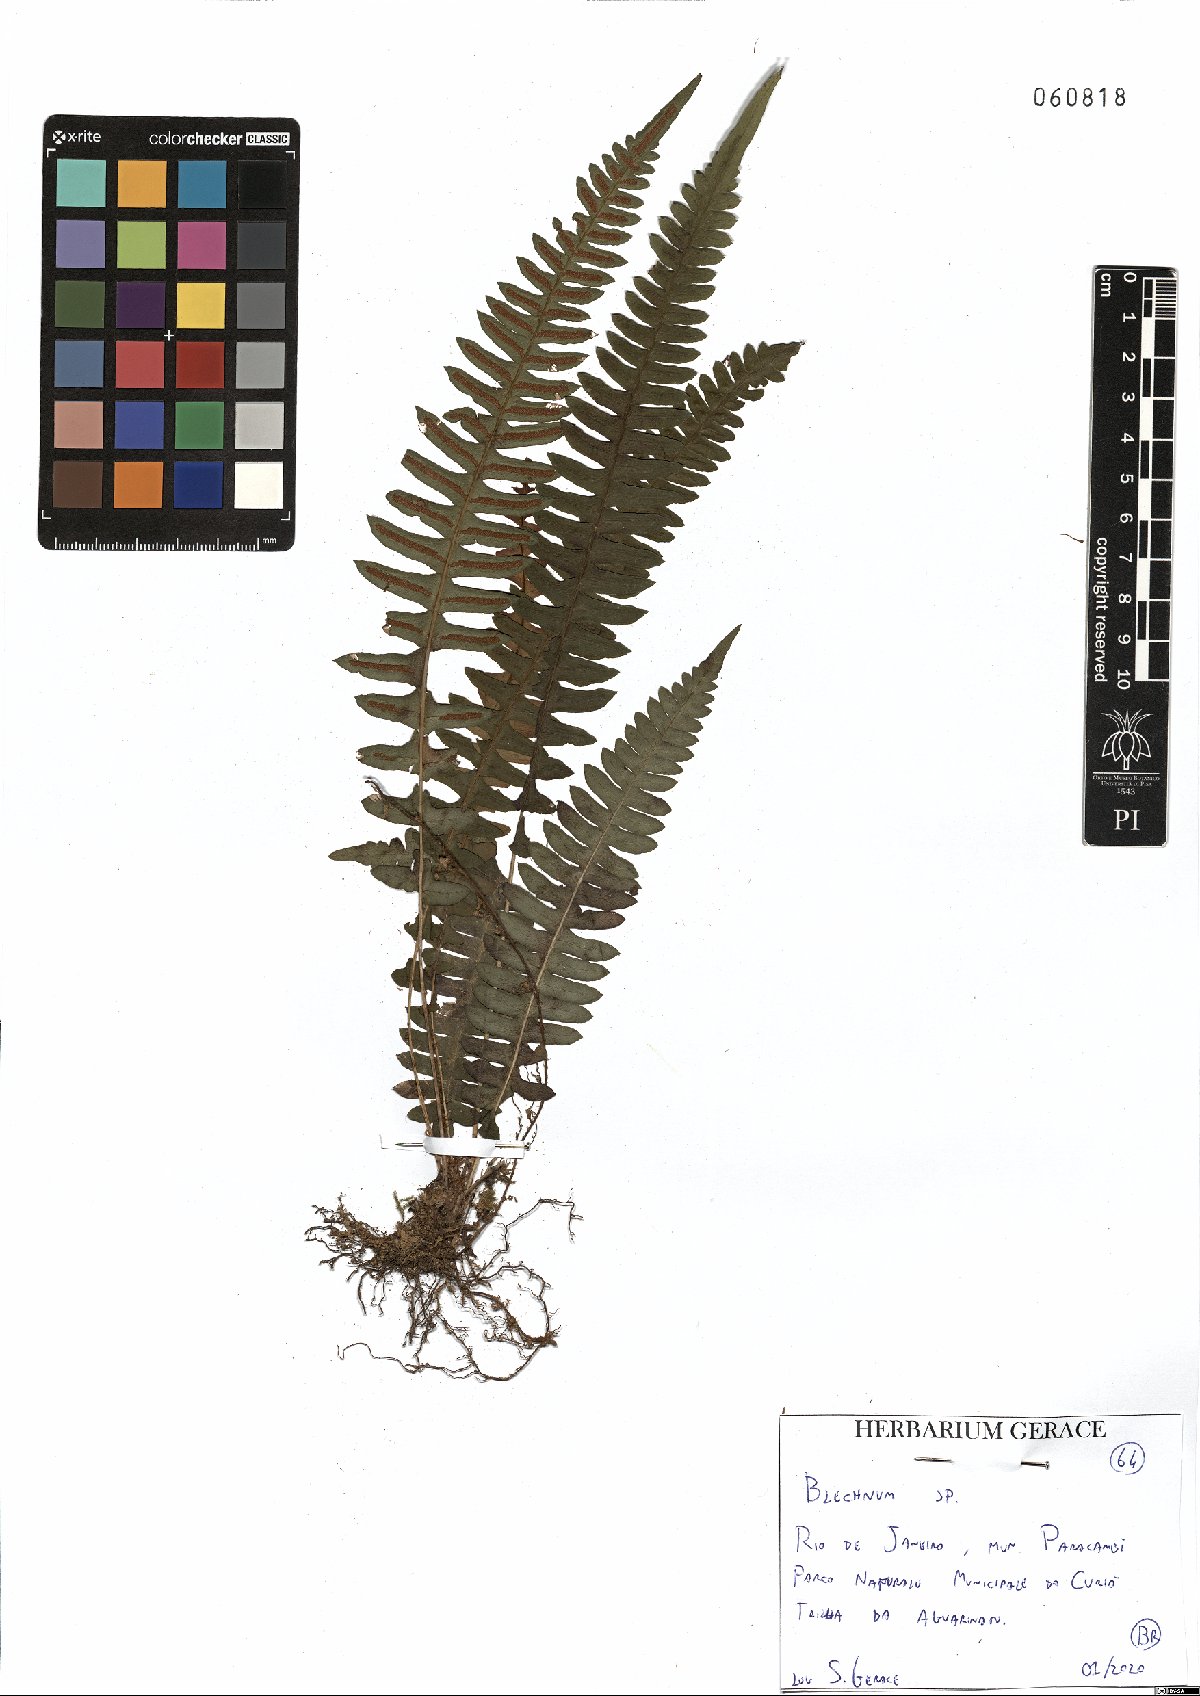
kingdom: Plantae
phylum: Tracheophyta
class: Polypodiopsida
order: Polypodiales
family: Blechnaceae
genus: Blechnum
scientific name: Blechnum
